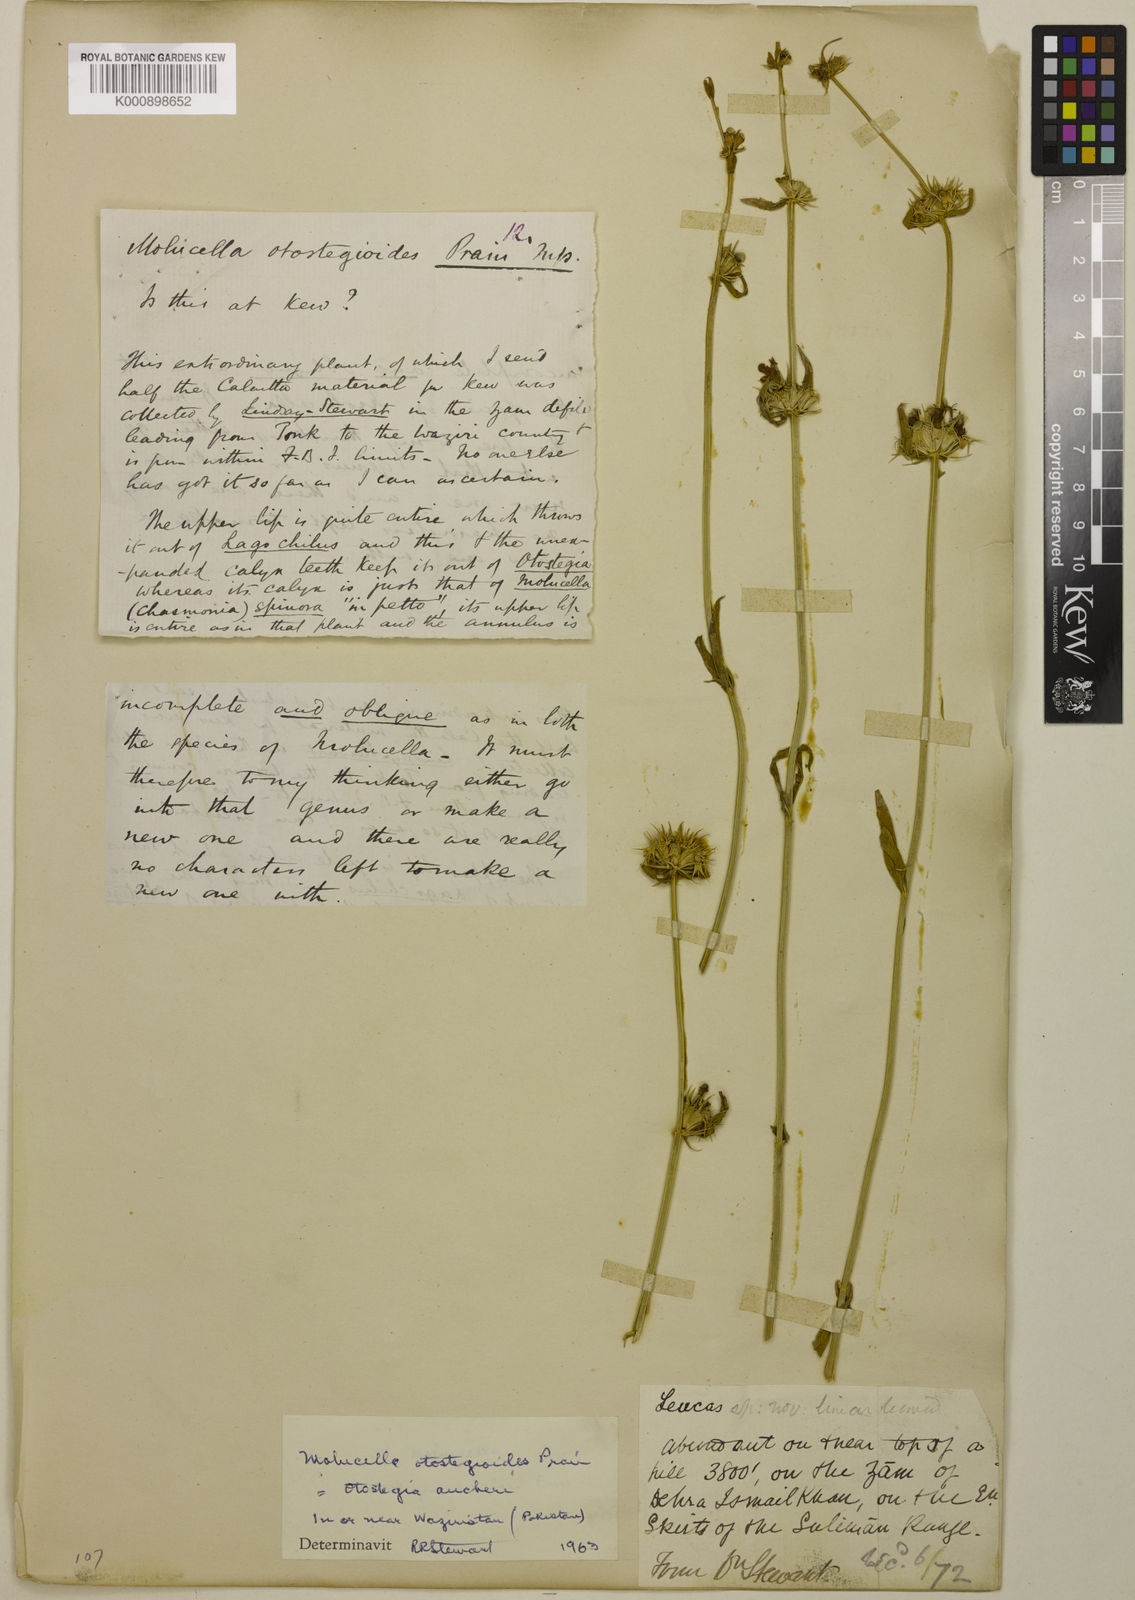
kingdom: Plantae
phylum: Tracheophyta
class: Magnoliopsida
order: Lamiales
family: Lamiaceae
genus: Moluccella
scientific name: Moluccella otostegioides
